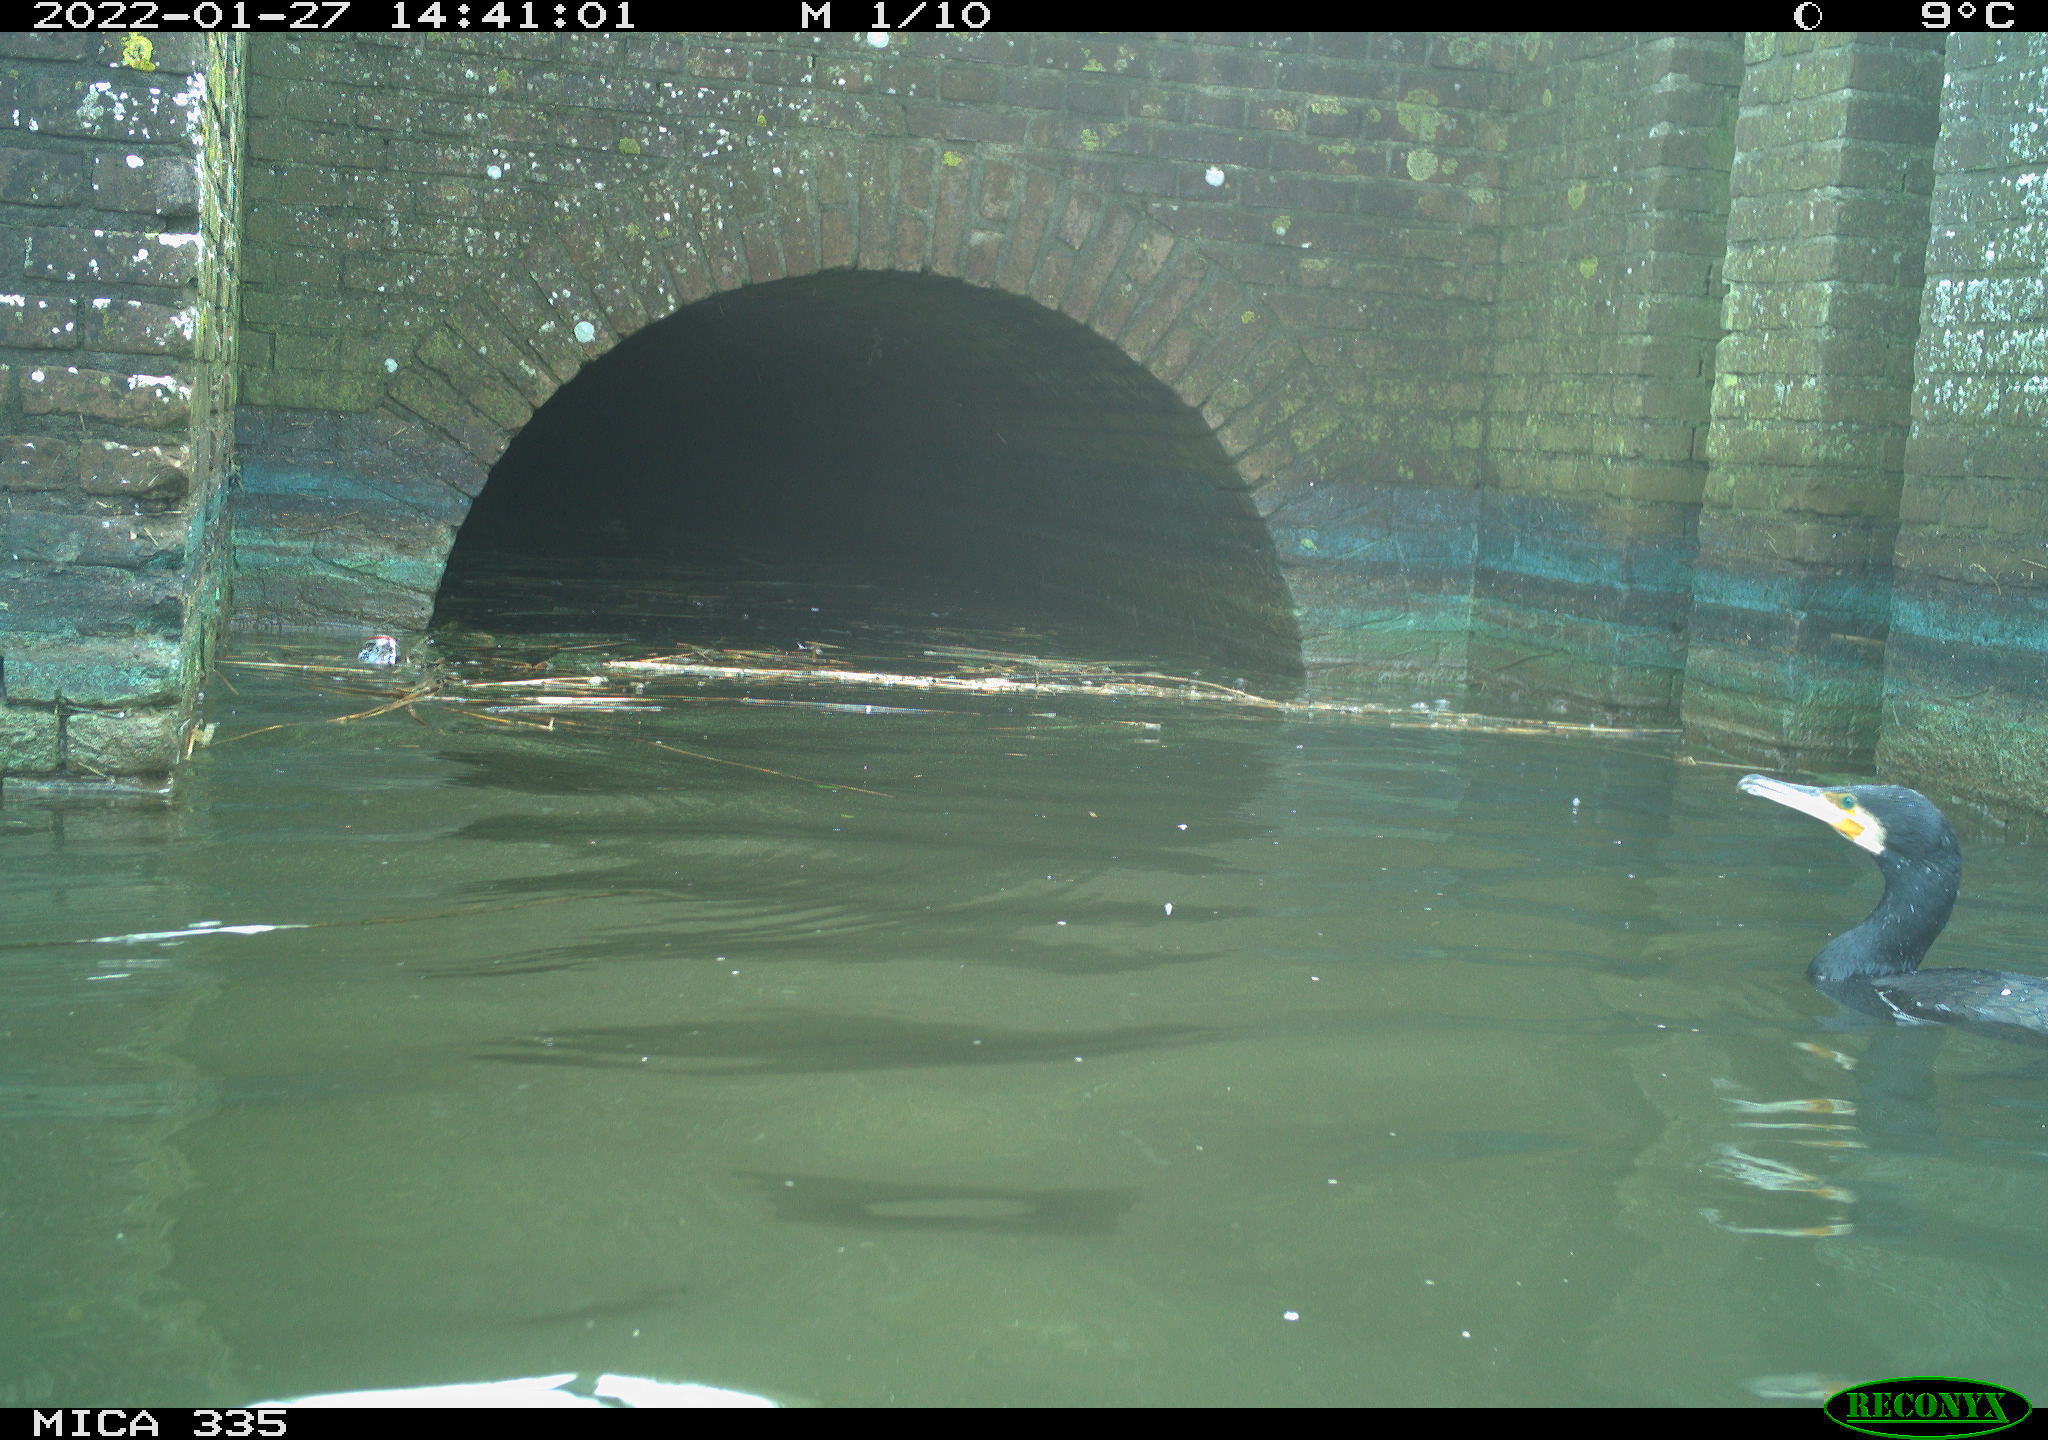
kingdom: Animalia
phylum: Chordata
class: Aves
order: Suliformes
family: Phalacrocoracidae
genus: Phalacrocorax
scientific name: Phalacrocorax carbo
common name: Great cormorant
